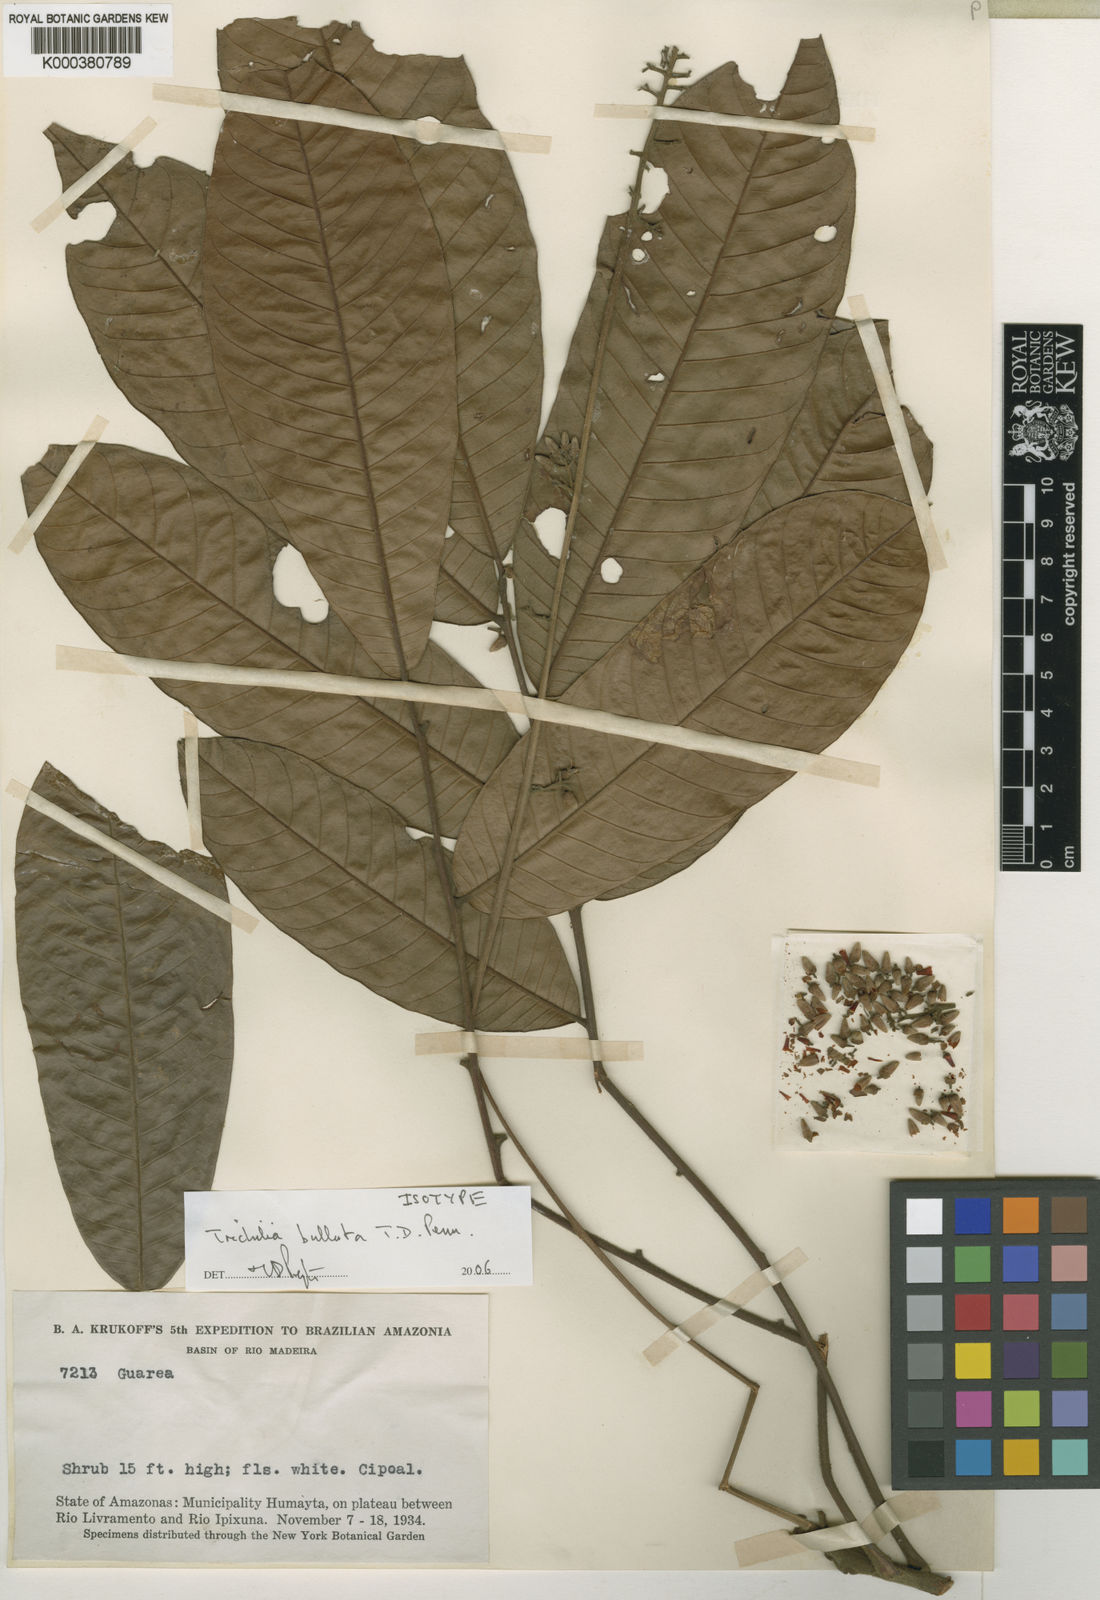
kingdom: Plantae
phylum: Tracheophyta
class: Magnoliopsida
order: Sapindales
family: Meliaceae
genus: Trichilia
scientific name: Trichilia bullata
